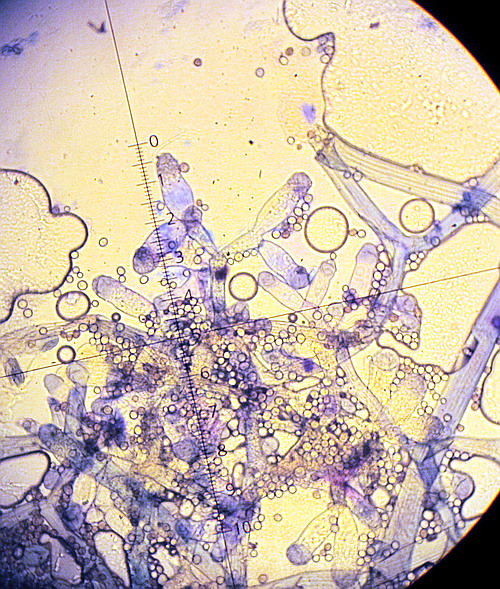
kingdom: Fungi
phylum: Mucoromycota
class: Mucoromycetes
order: Mucorales
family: Rhizopodaceae
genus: Syzygites
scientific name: Syzygites megalocarpus
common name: nissenål
